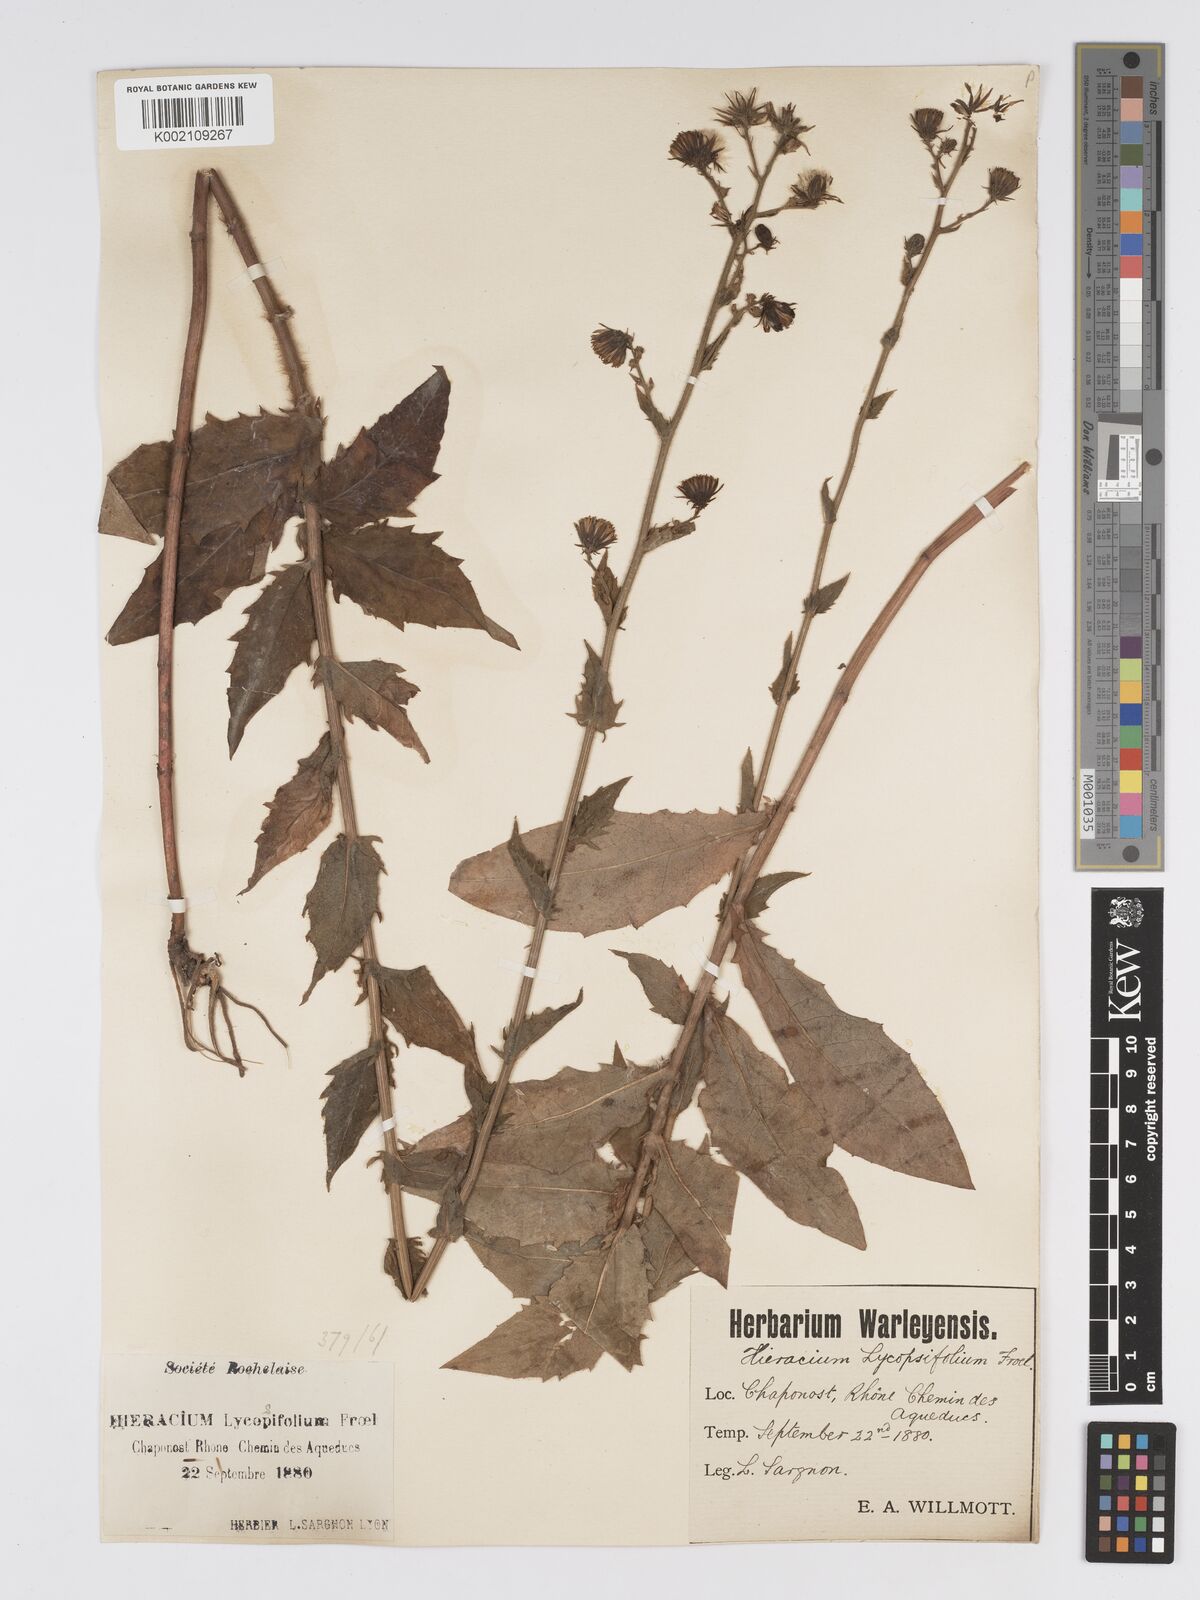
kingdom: Plantae
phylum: Tracheophyta
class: Magnoliopsida
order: Asterales
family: Asteraceae
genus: Hieracium
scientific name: Hieracium lycopifolium
